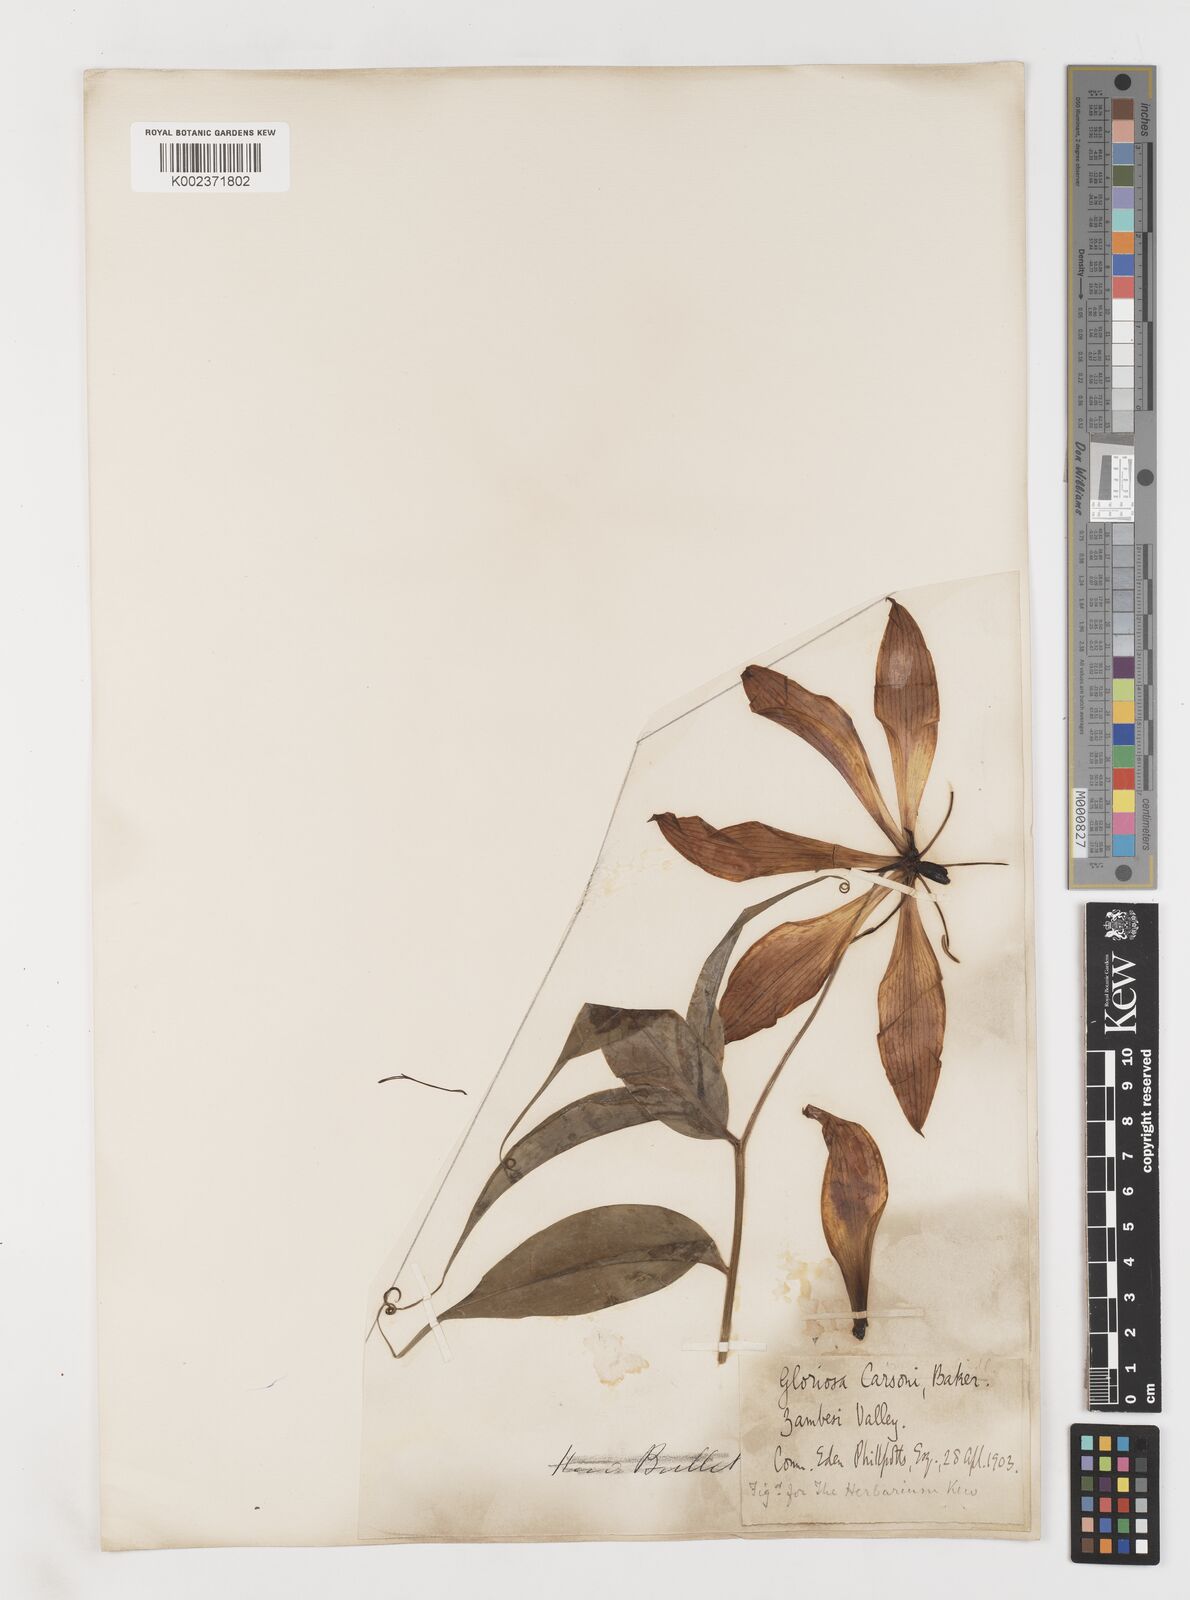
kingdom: Plantae
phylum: Tracheophyta
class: Liliopsida
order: Liliales
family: Colchicaceae
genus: Gloriosa
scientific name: Gloriosa simplex
